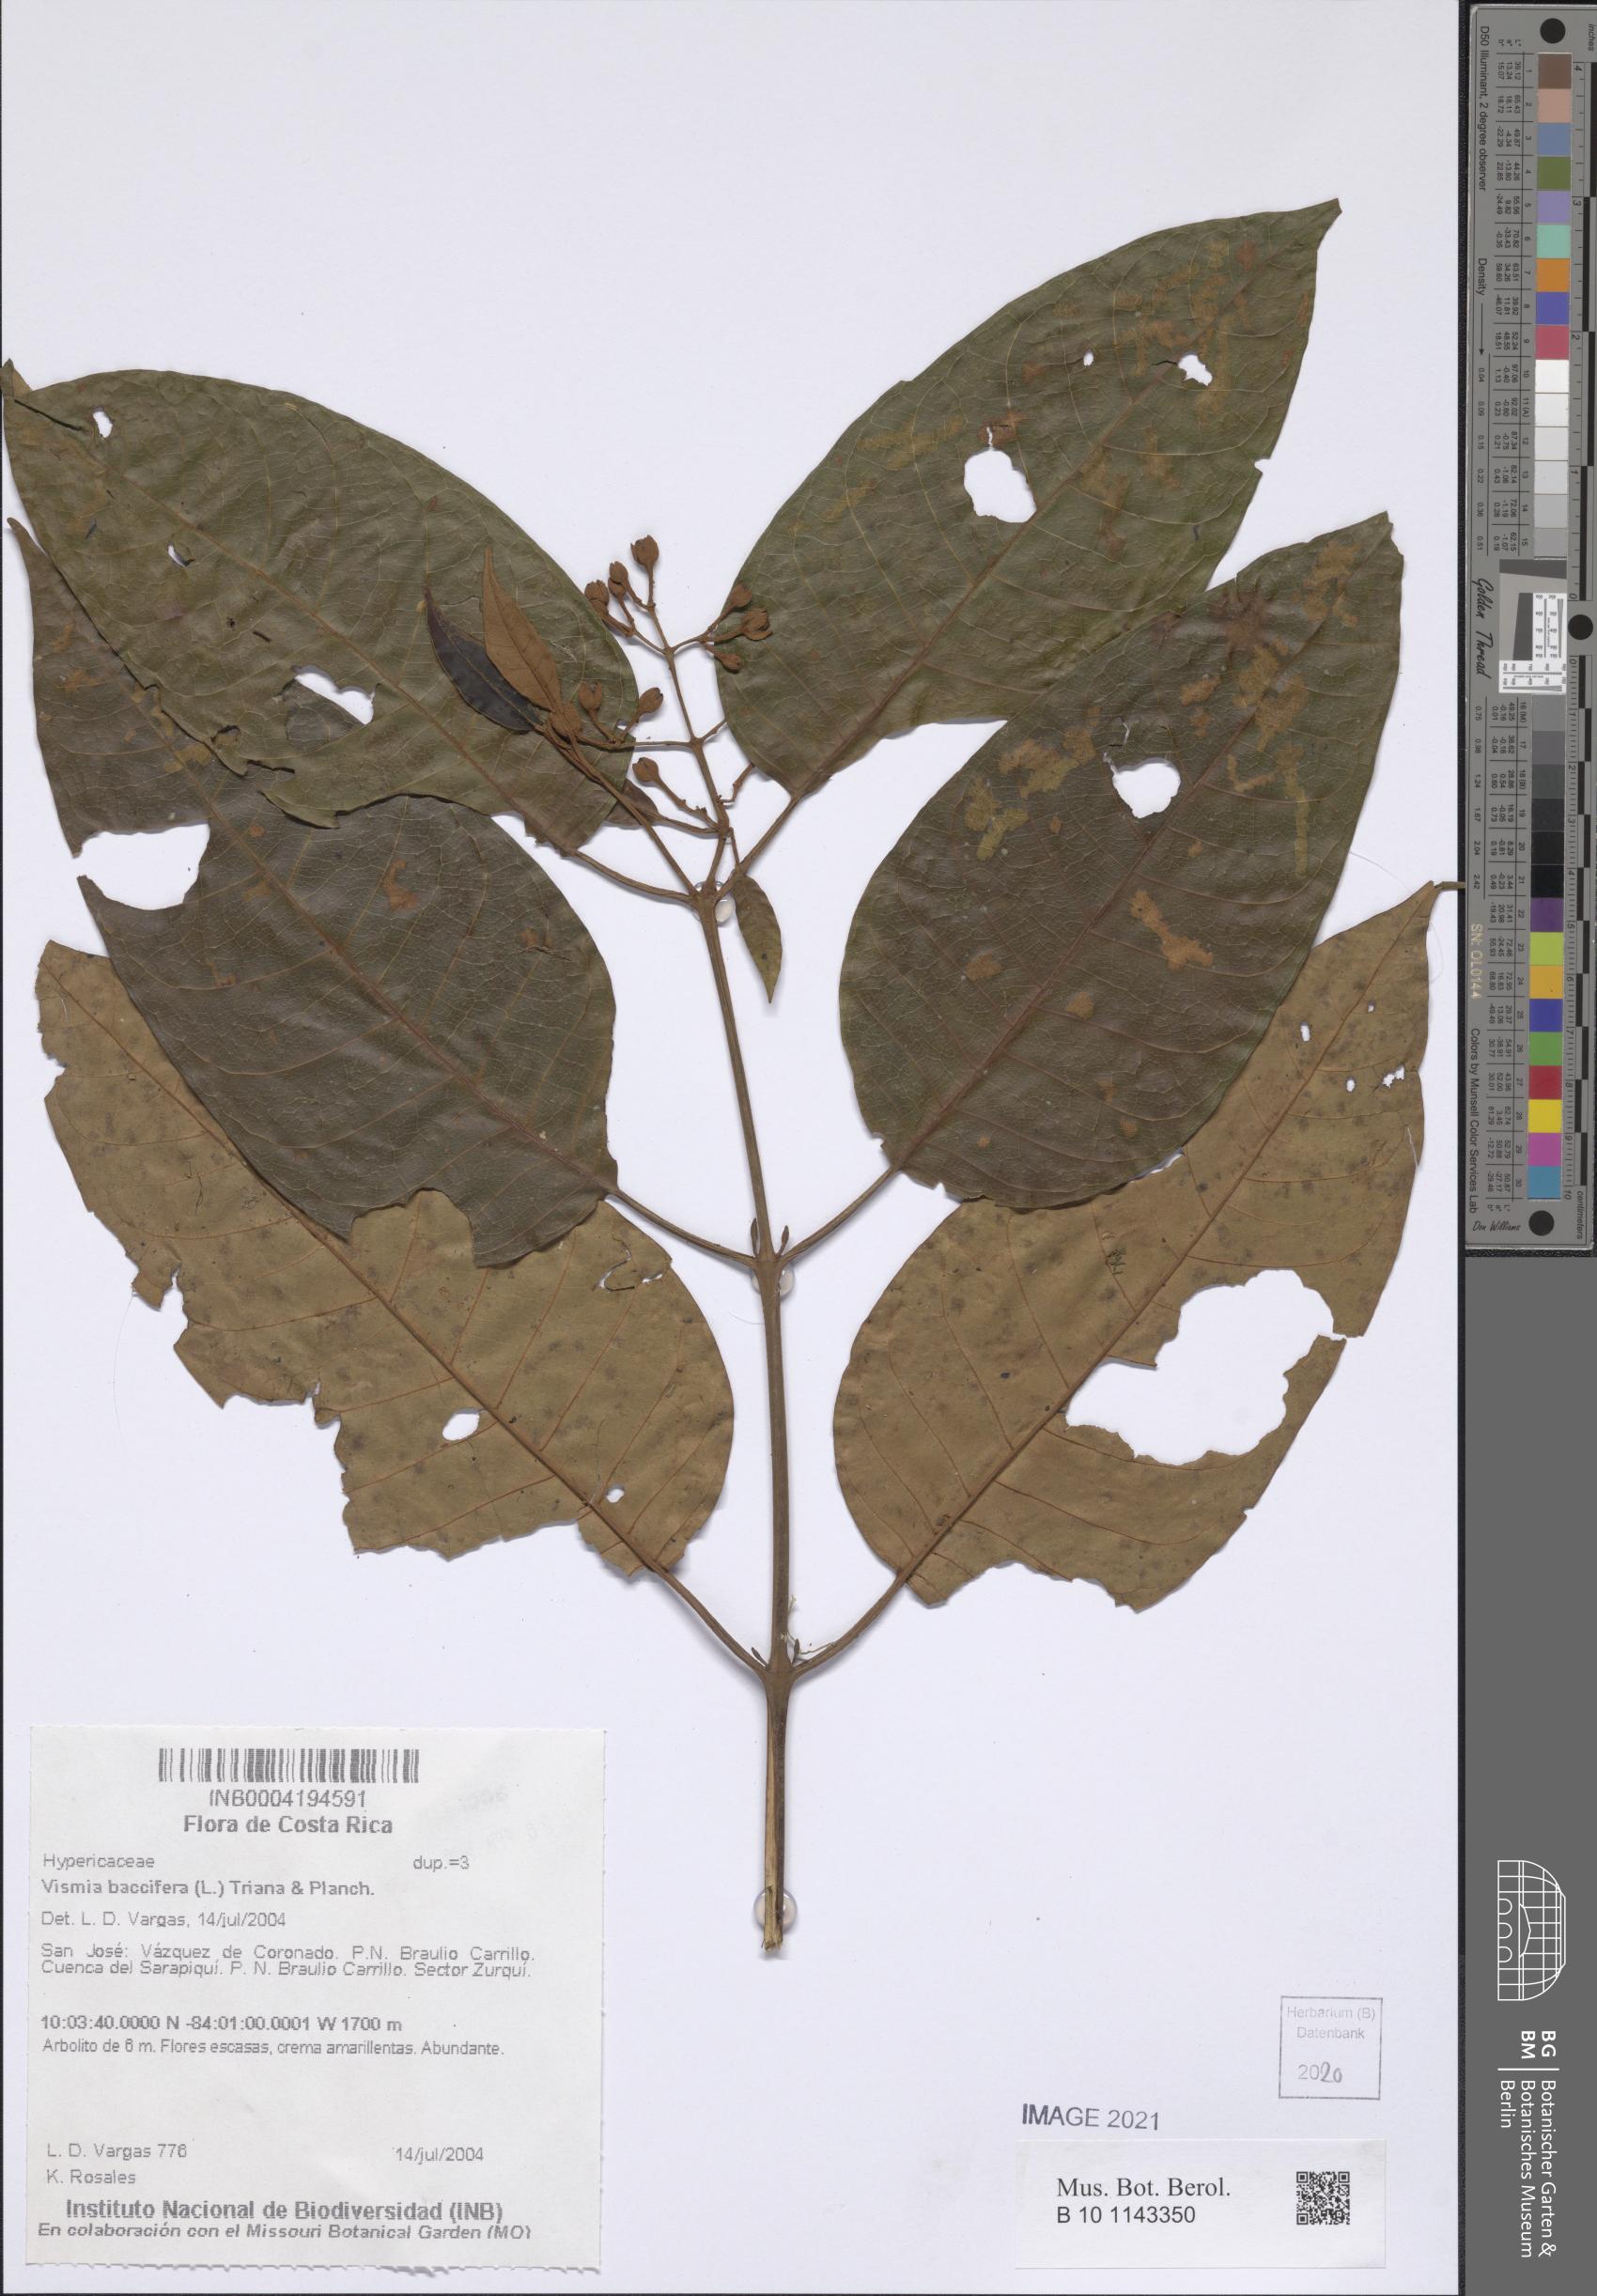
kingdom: Plantae
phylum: Tracheophyta
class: Magnoliopsida
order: Malpighiales
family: Hypericaceae
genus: Vismia
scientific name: Vismia baccifera
